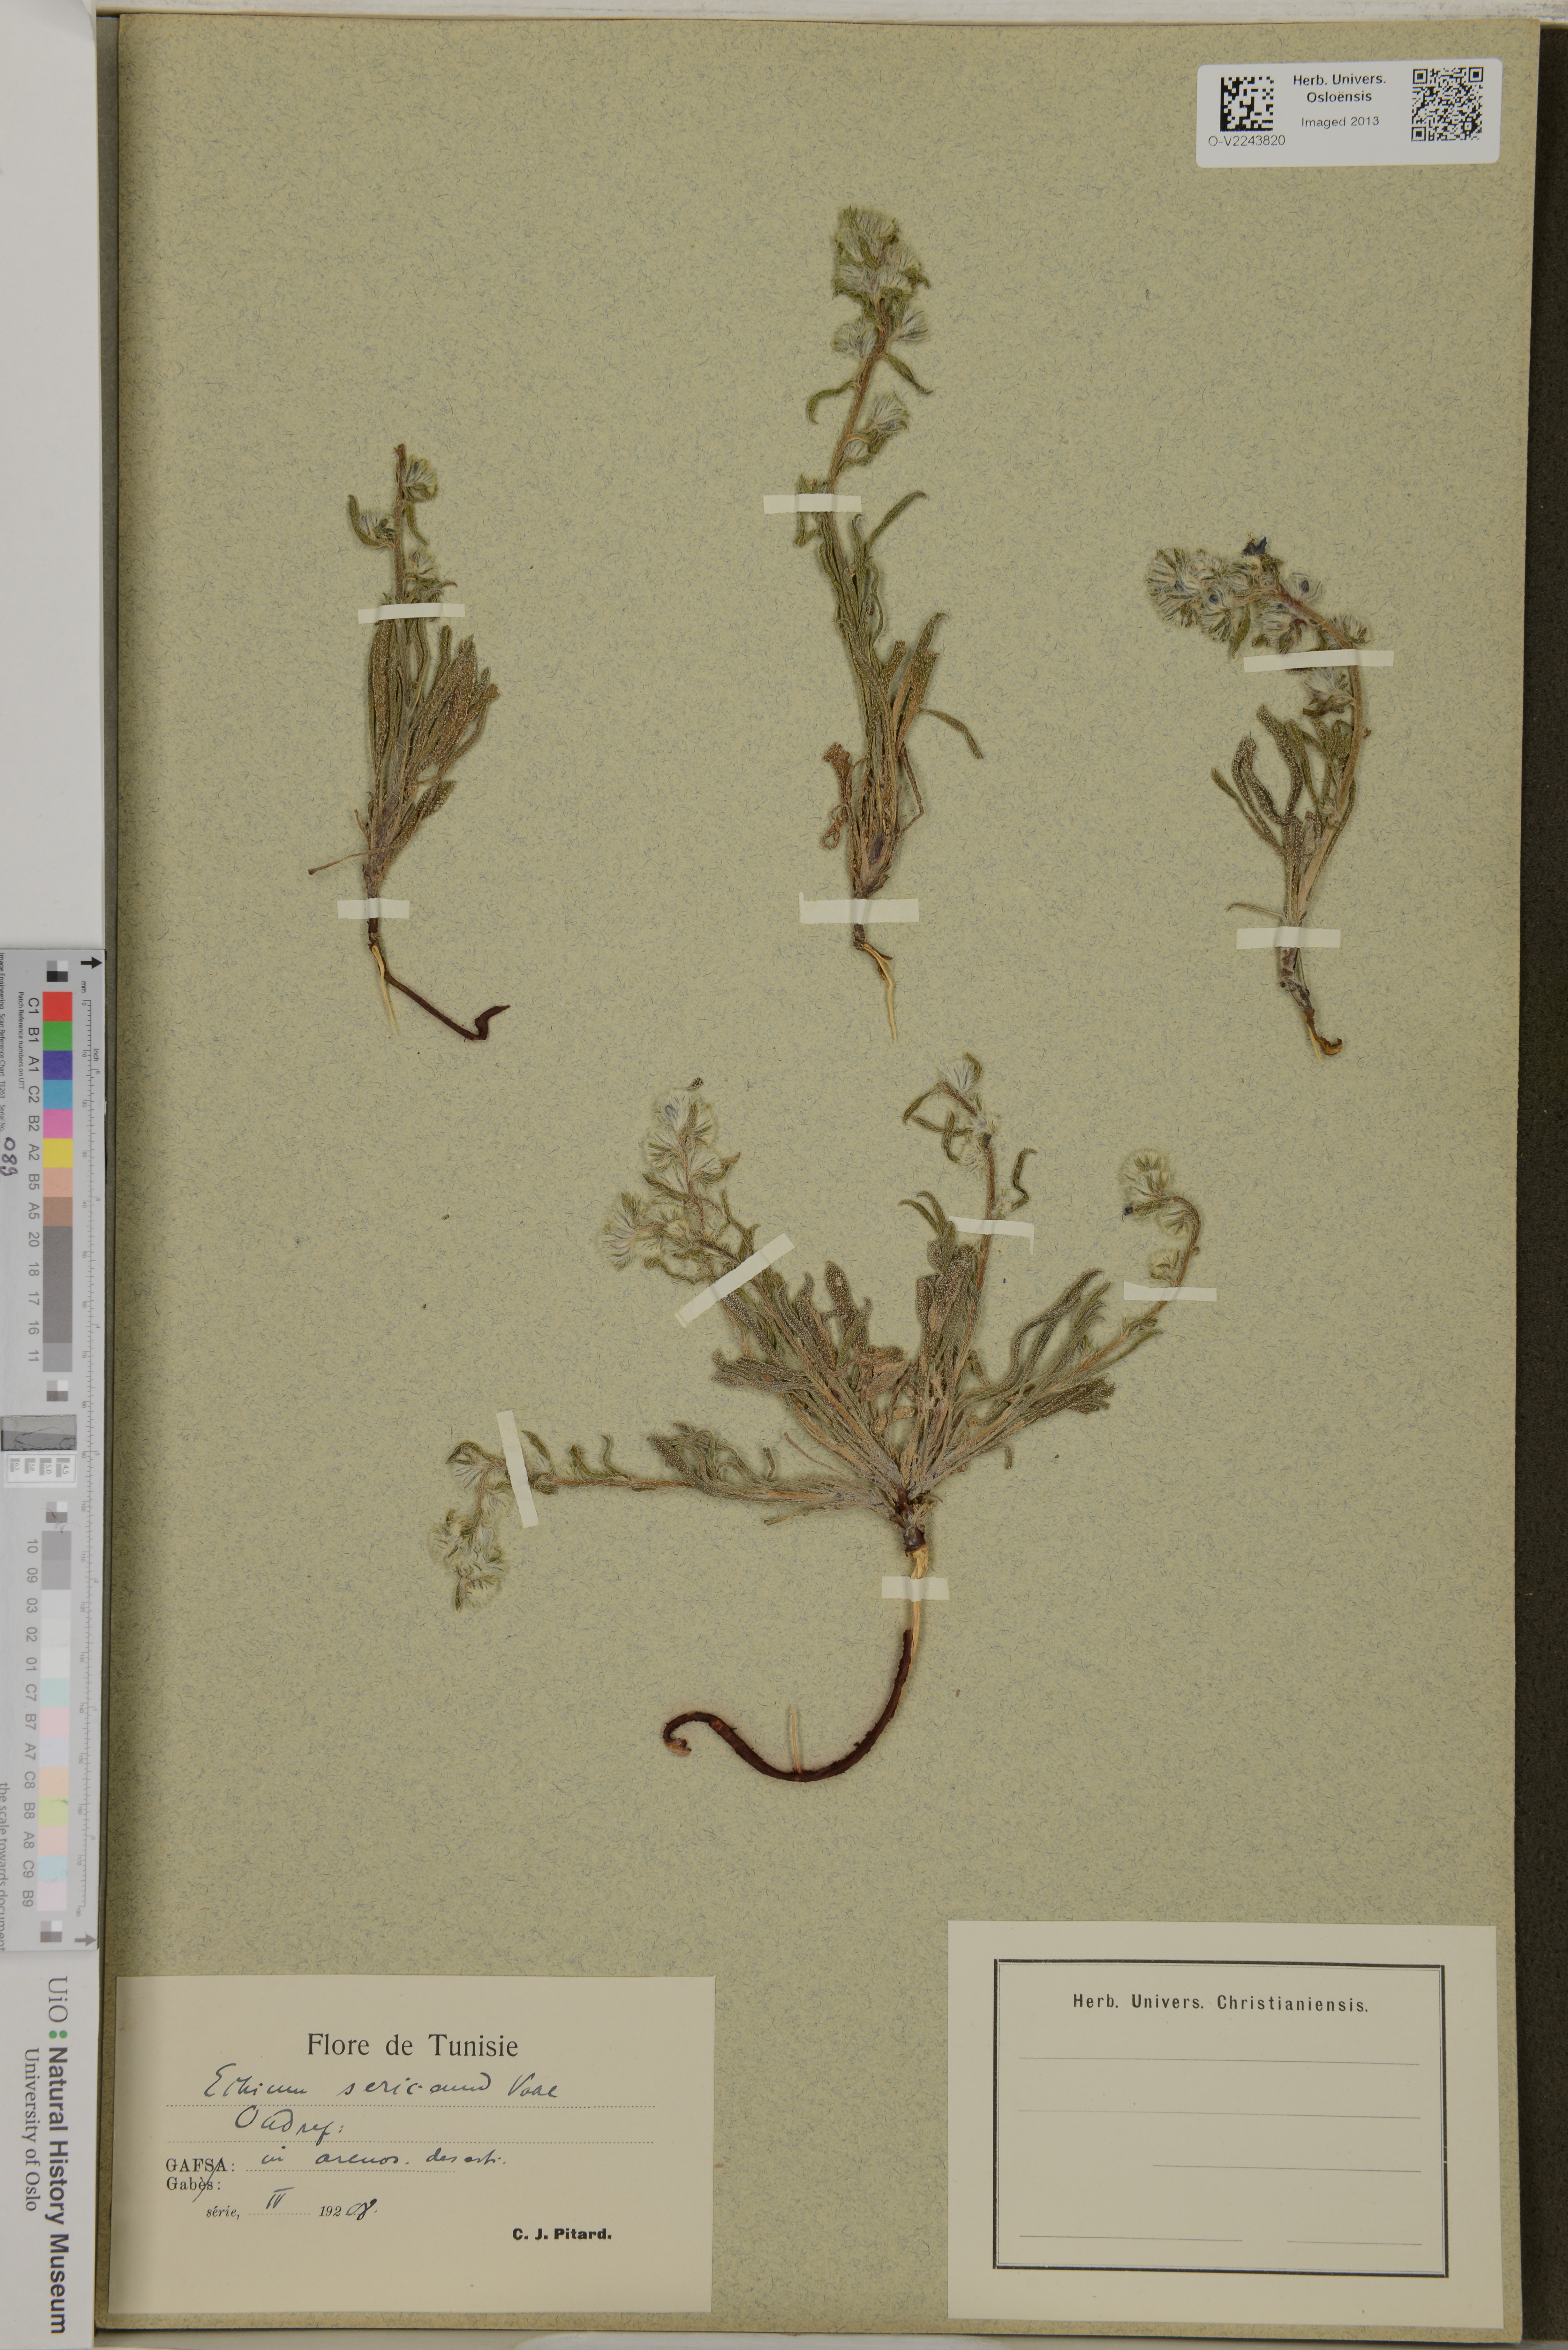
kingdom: Plantae
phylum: Tracheophyta
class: Magnoliopsida
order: Boraginales
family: Boraginaceae
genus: Echium
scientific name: Echium angustifolium
